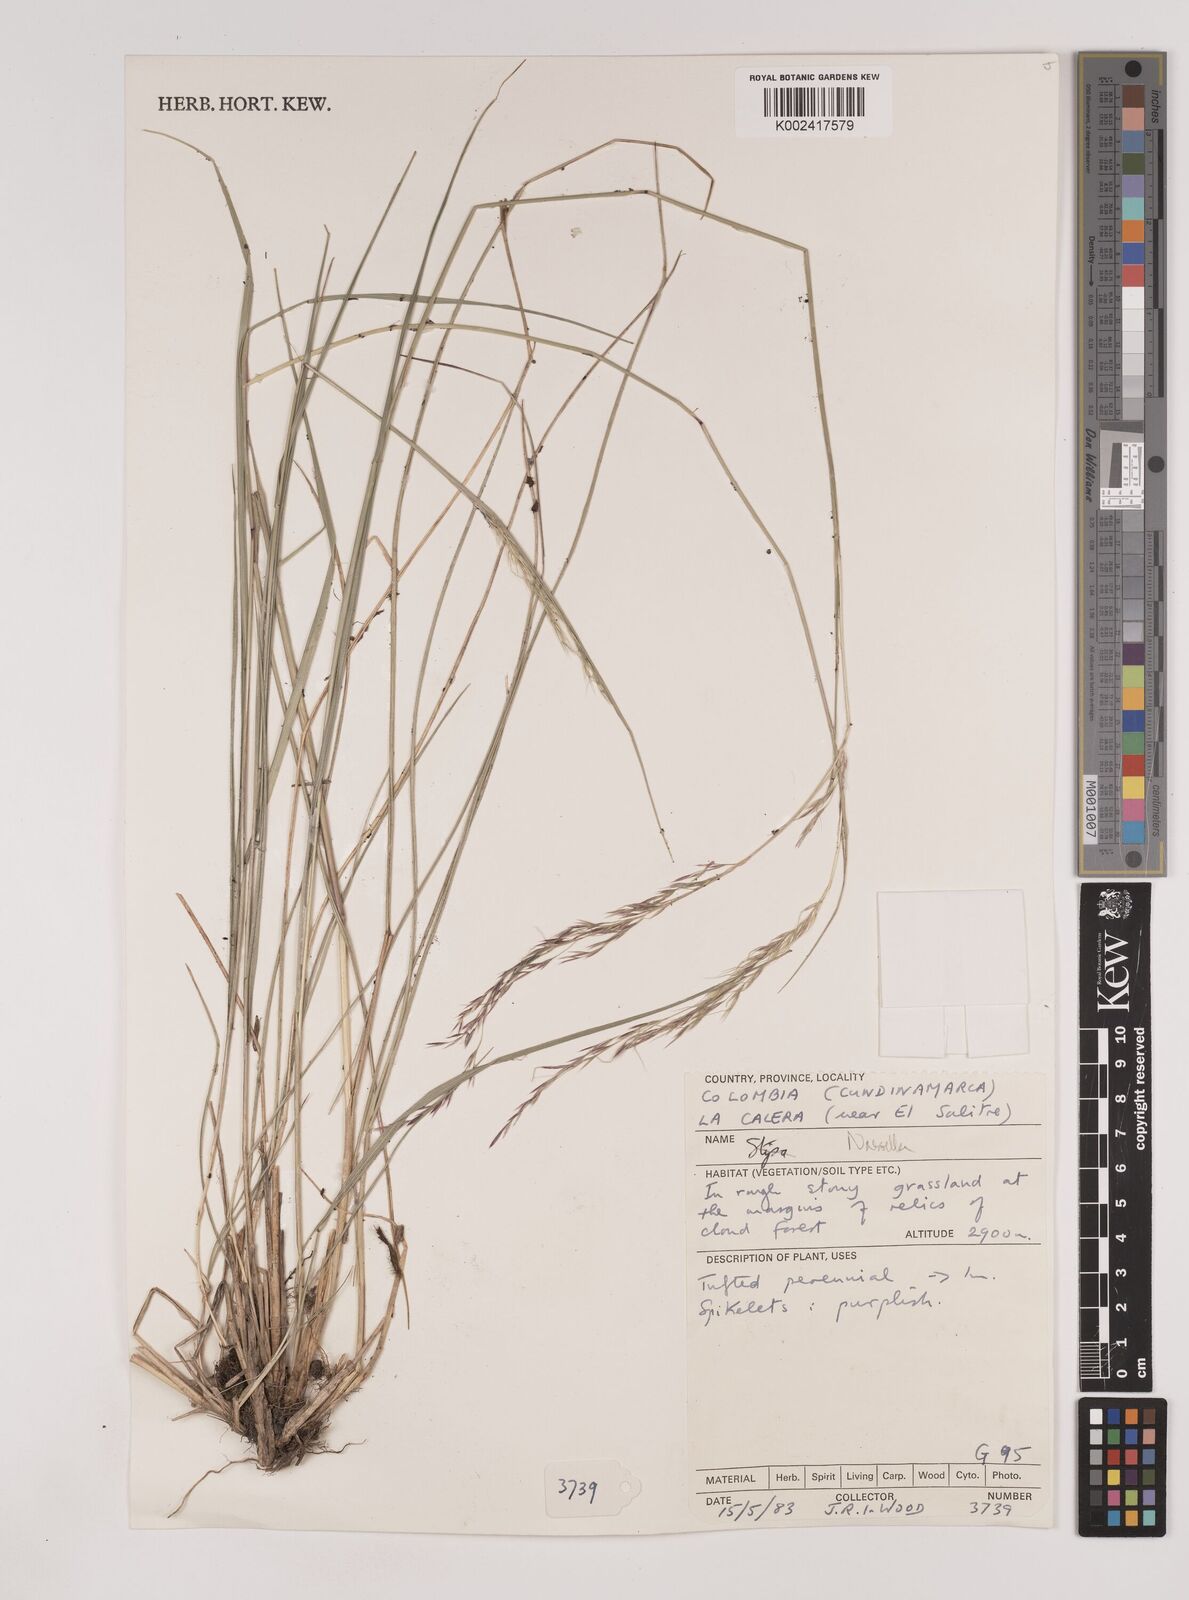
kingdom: Plantae
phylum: Tracheophyta
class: Liliopsida
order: Poales
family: Poaceae
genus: Nassella
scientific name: Nassella
